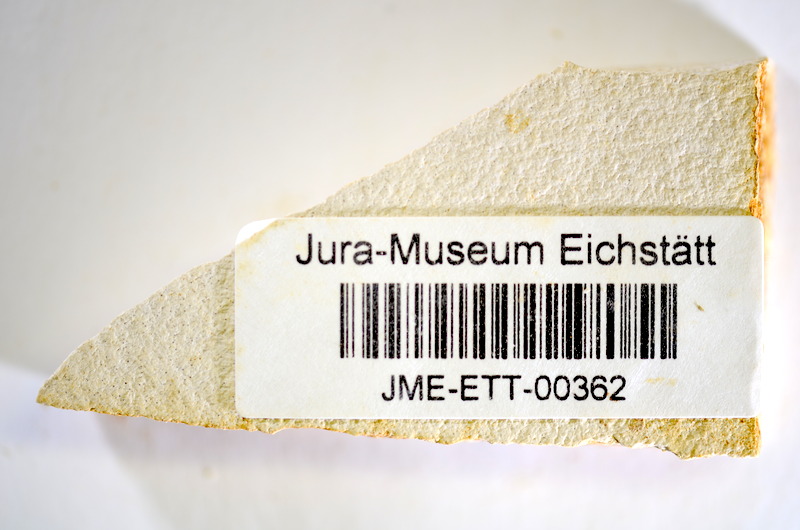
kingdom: Animalia
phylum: Chordata
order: Salmoniformes
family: Orthogonikleithridae
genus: Orthogonikleithrus
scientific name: Orthogonikleithrus hoelli
